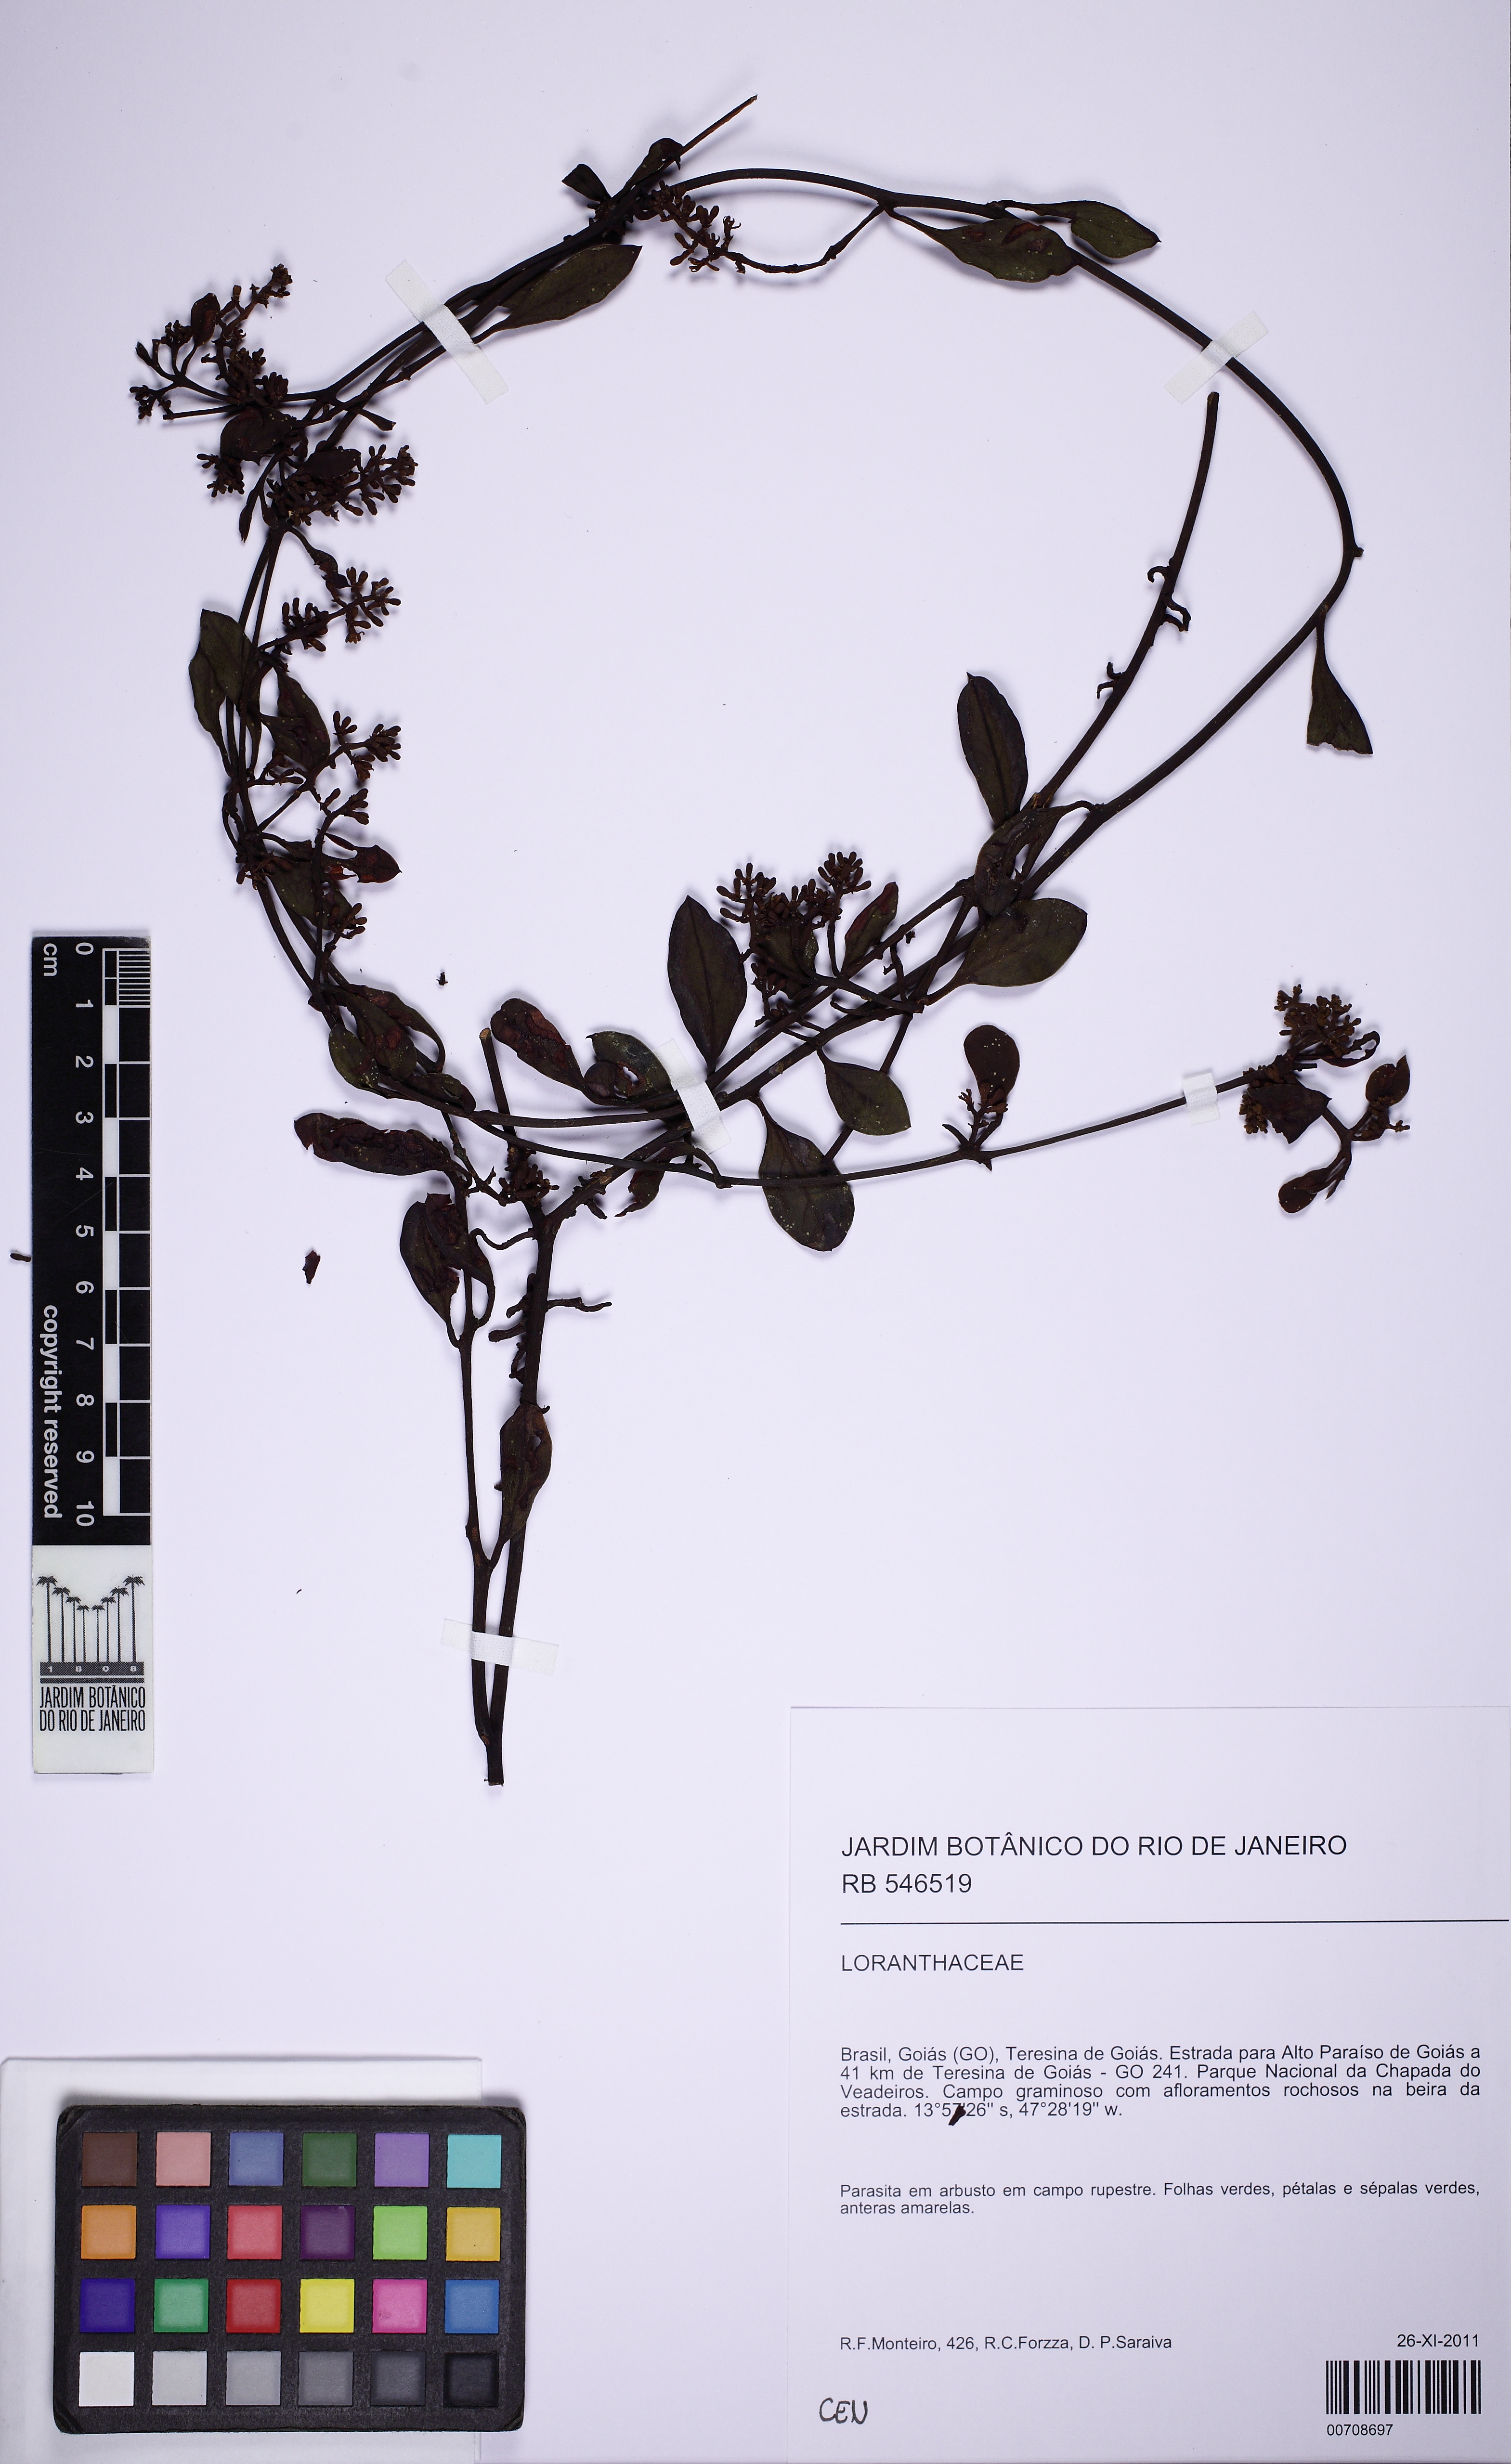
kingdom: Plantae
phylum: Tracheophyta
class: Magnoliopsida
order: Santalales
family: Loranthaceae
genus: Struthanthus
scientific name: Struthanthus
